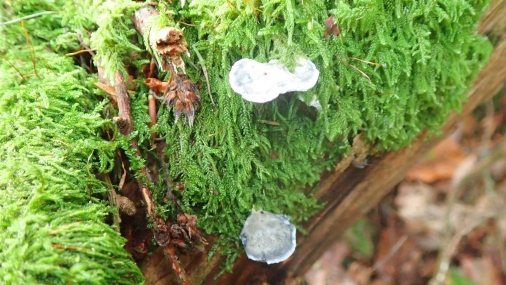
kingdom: Fungi
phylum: Basidiomycota
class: Agaricomycetes
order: Polyporales
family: Polyporaceae
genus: Cyanosporus
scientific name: Cyanosporus caesius
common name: blålig kødporesvamp
